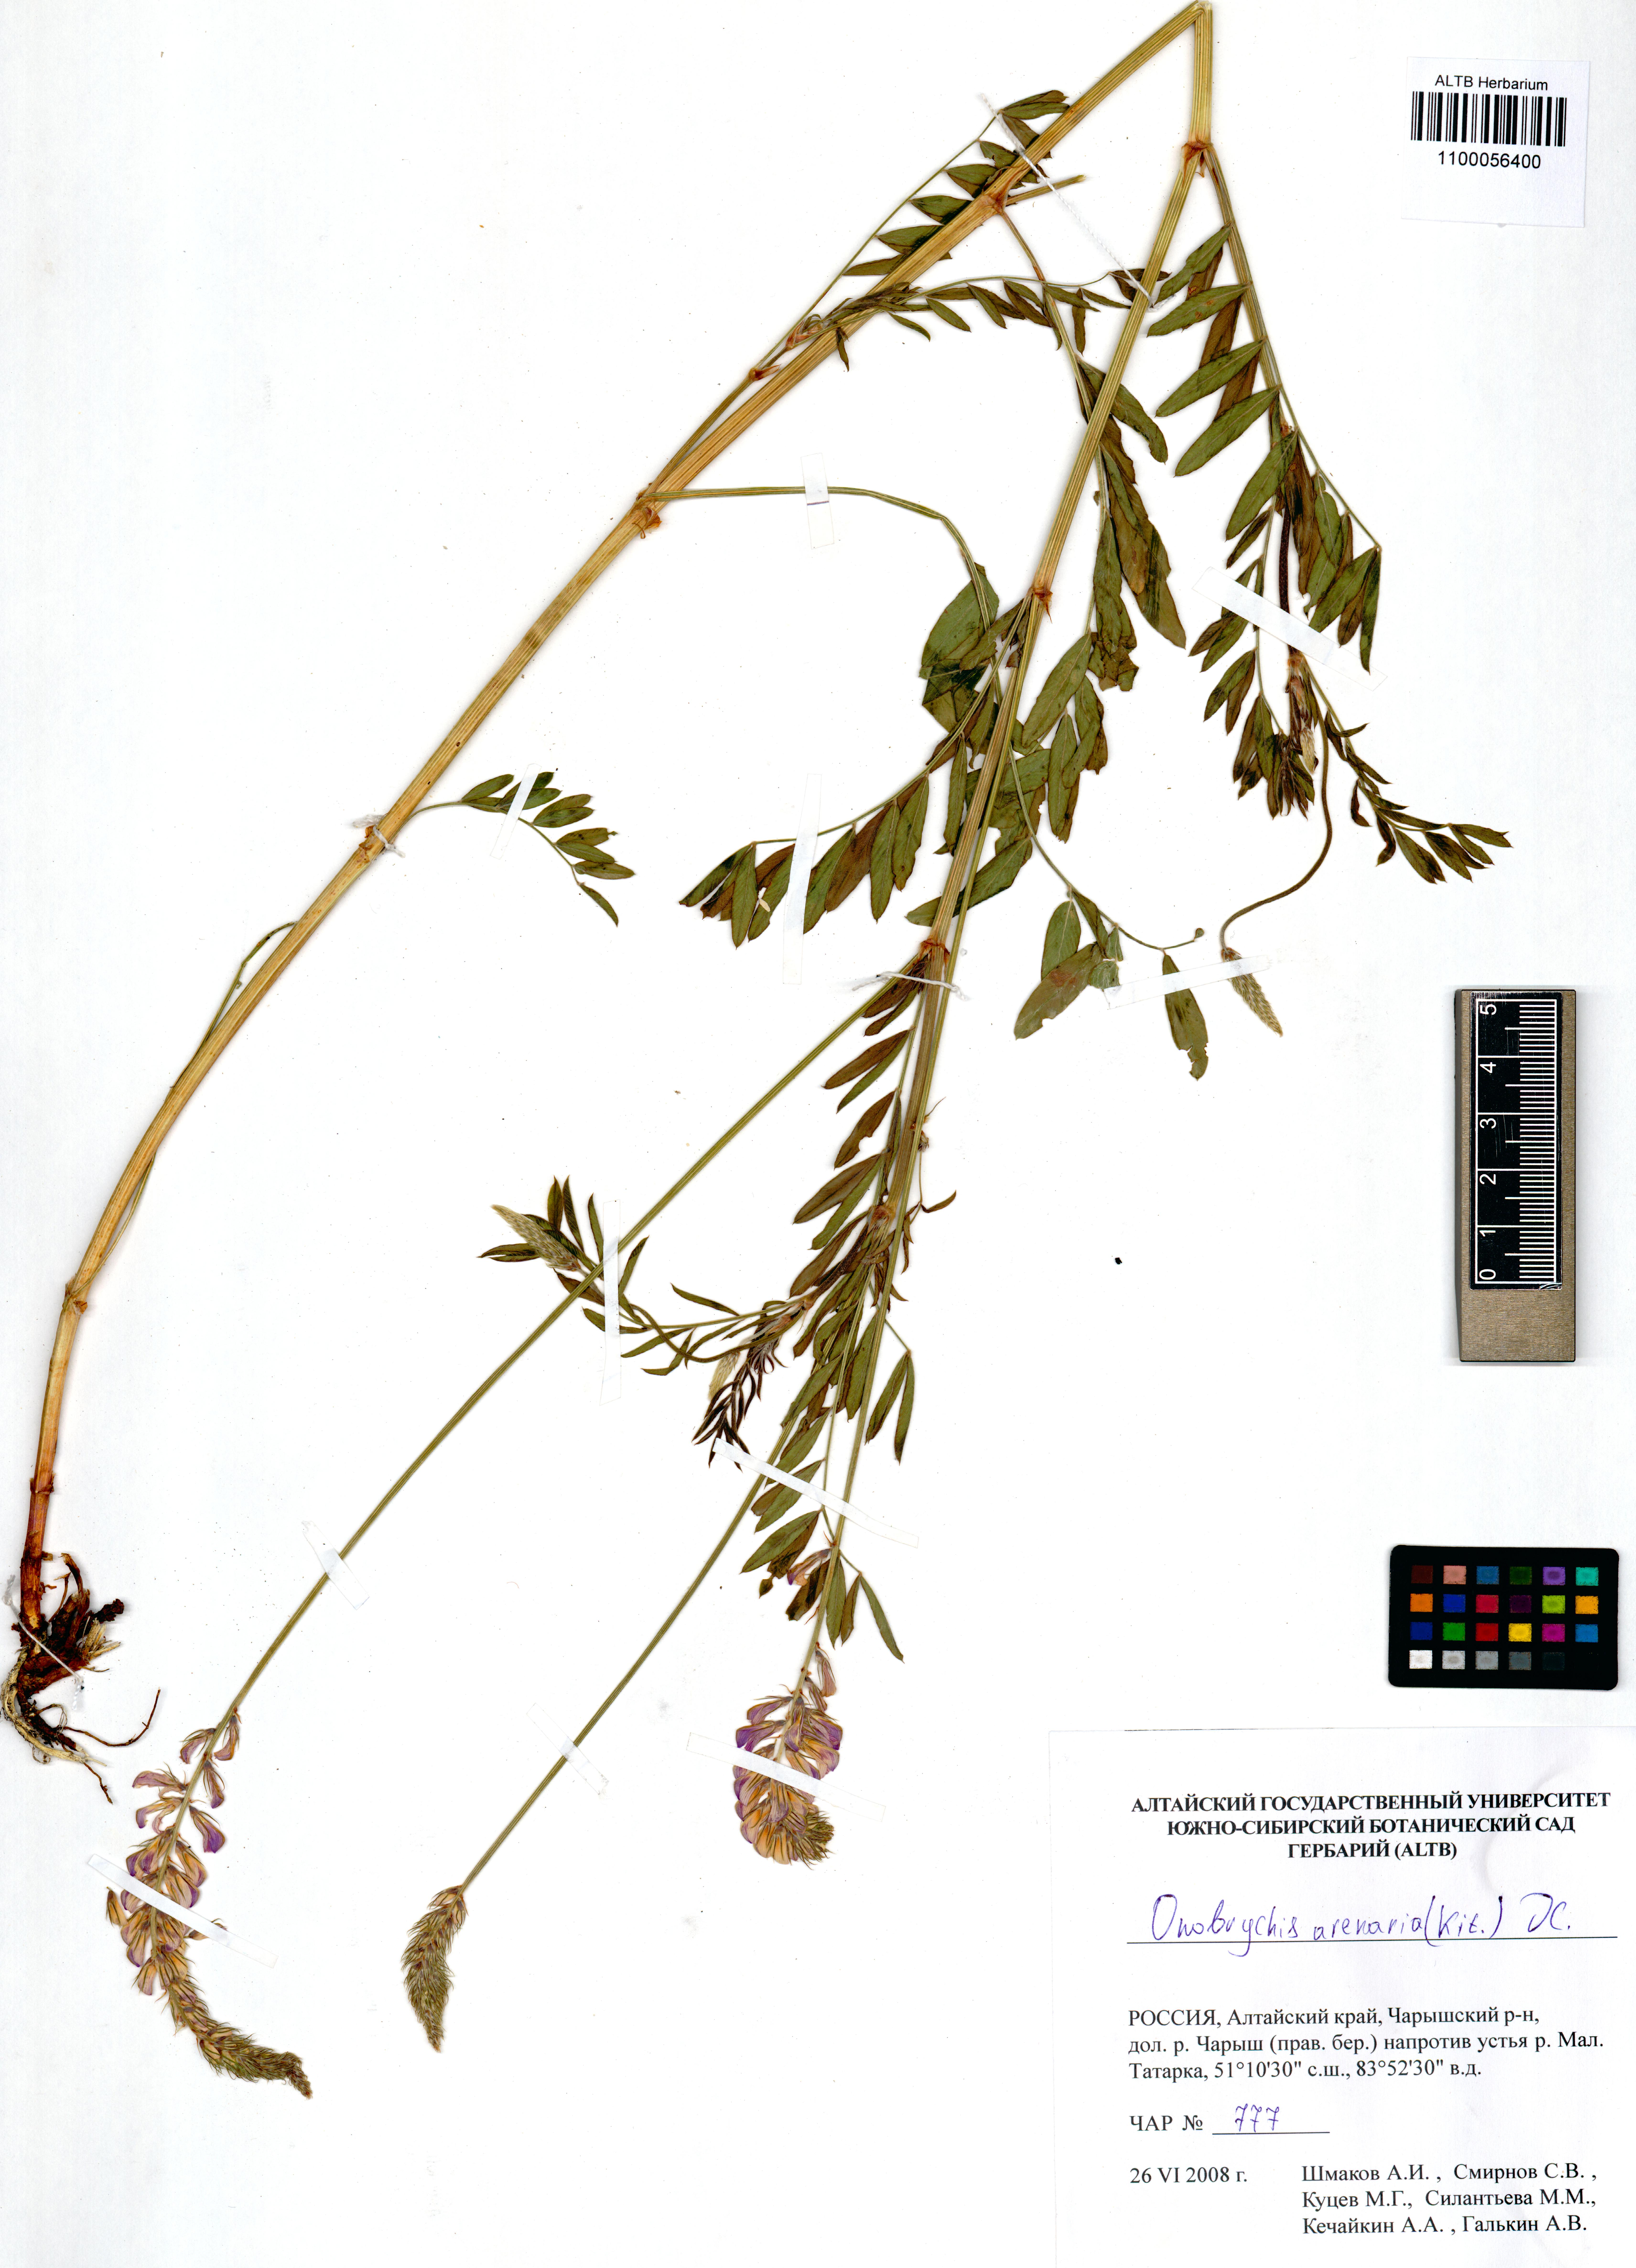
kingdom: Plantae
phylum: Tracheophyta
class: Magnoliopsida
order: Fabales
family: Fabaceae
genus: Onobrychis
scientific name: Onobrychis arenaria
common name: Sand esparcet
